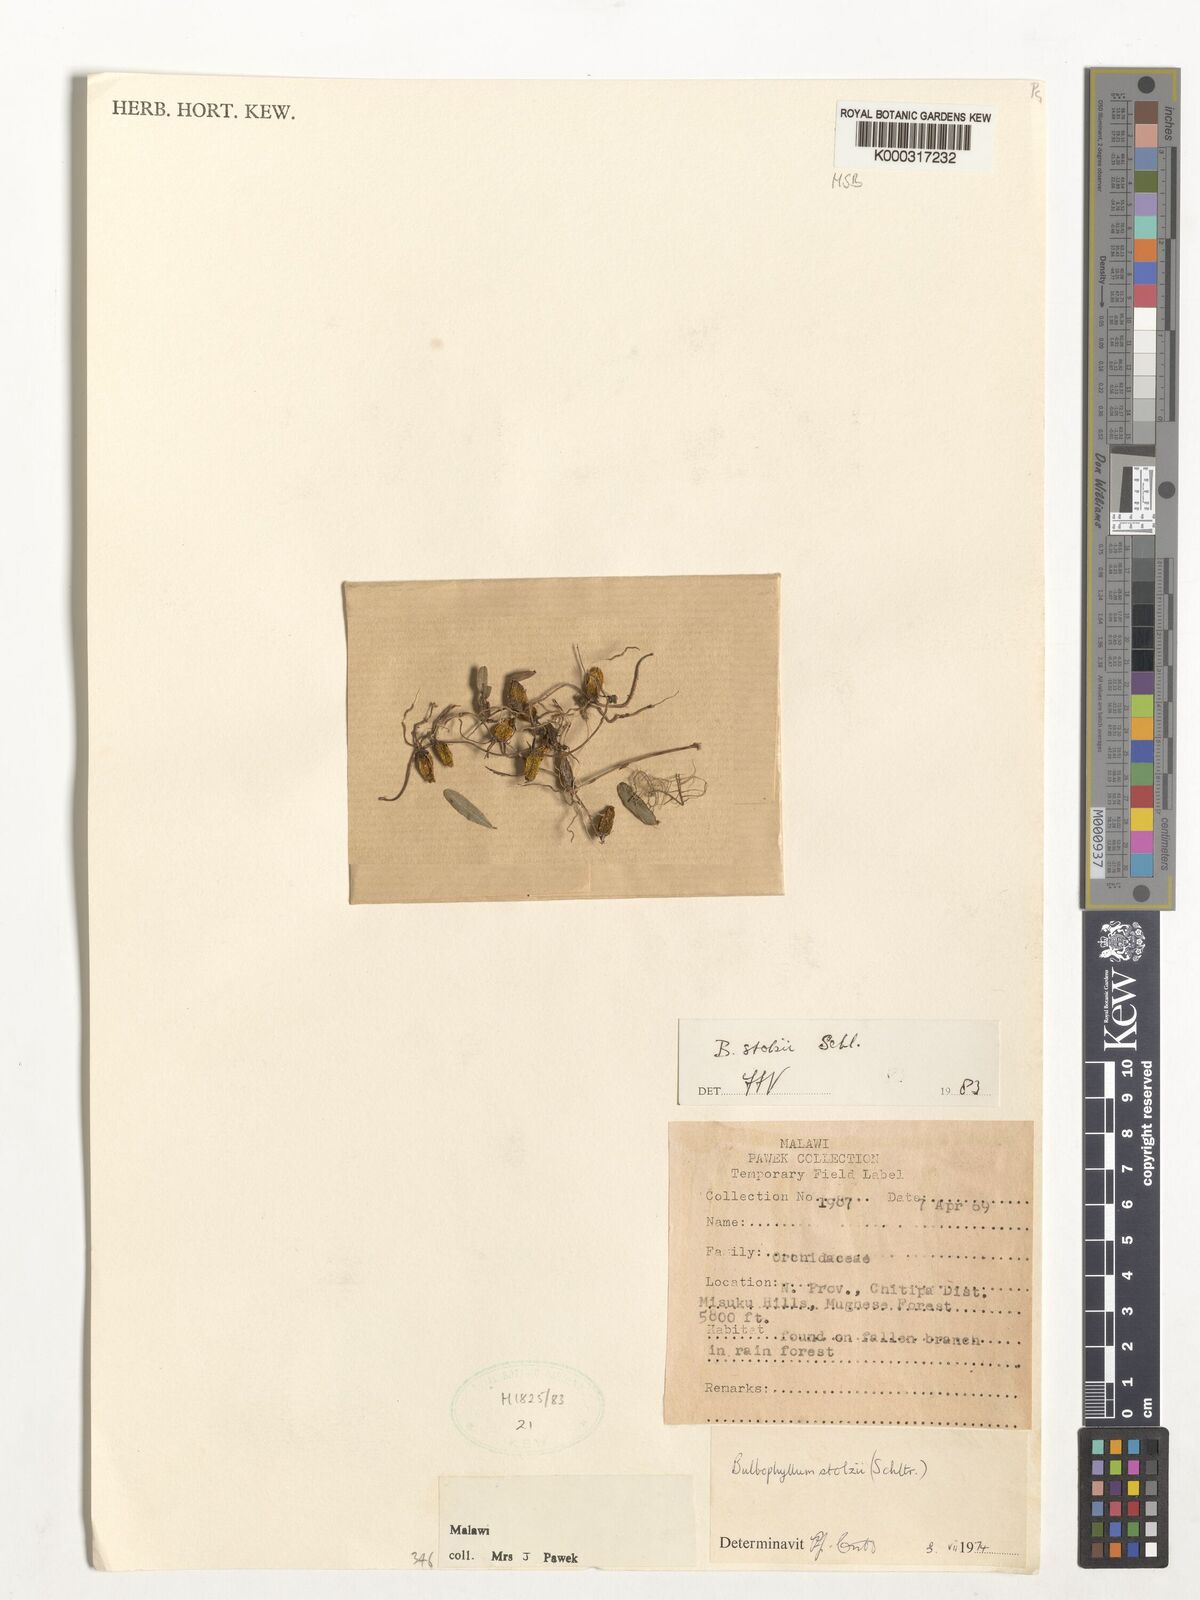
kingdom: Plantae
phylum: Tracheophyta
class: Liliopsida
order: Asparagales
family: Orchidaceae
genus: Bulbophyllum
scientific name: Bulbophyllum stolzii
